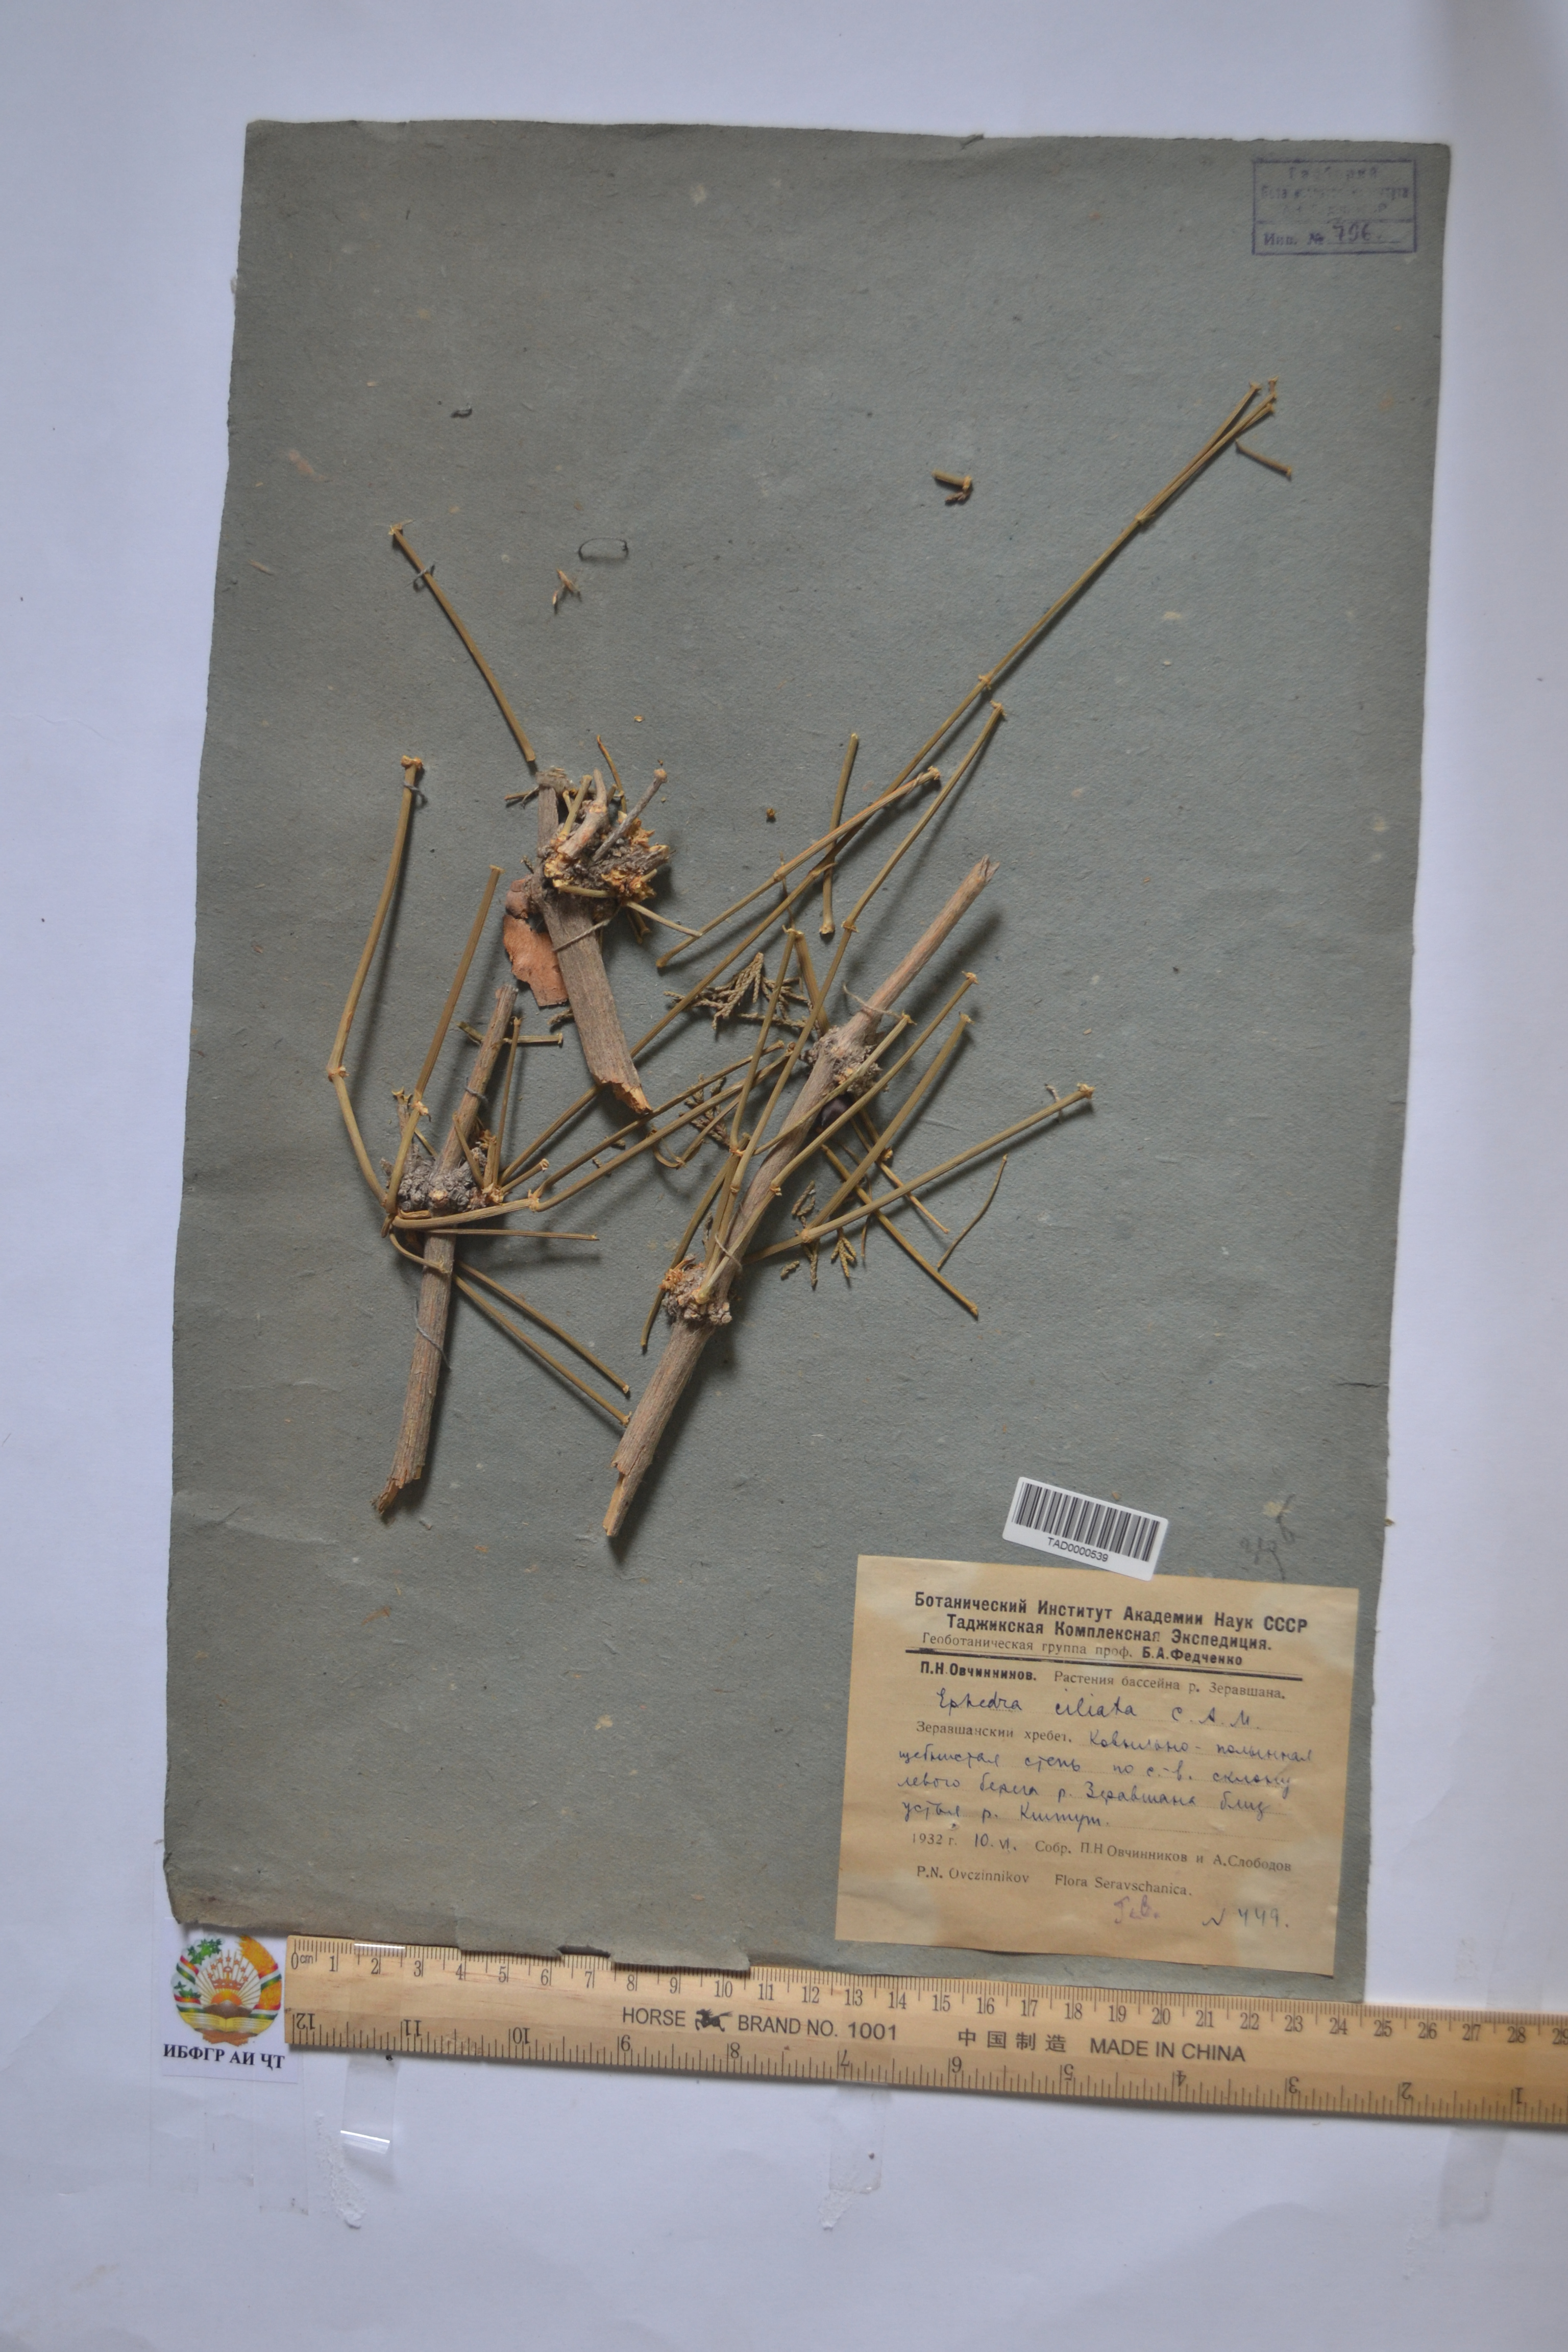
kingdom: Plantae
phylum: Tracheophyta
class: Gnetopsida
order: Ephedrales
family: Ephedraceae
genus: Ephedra
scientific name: Ephedra ciliata
